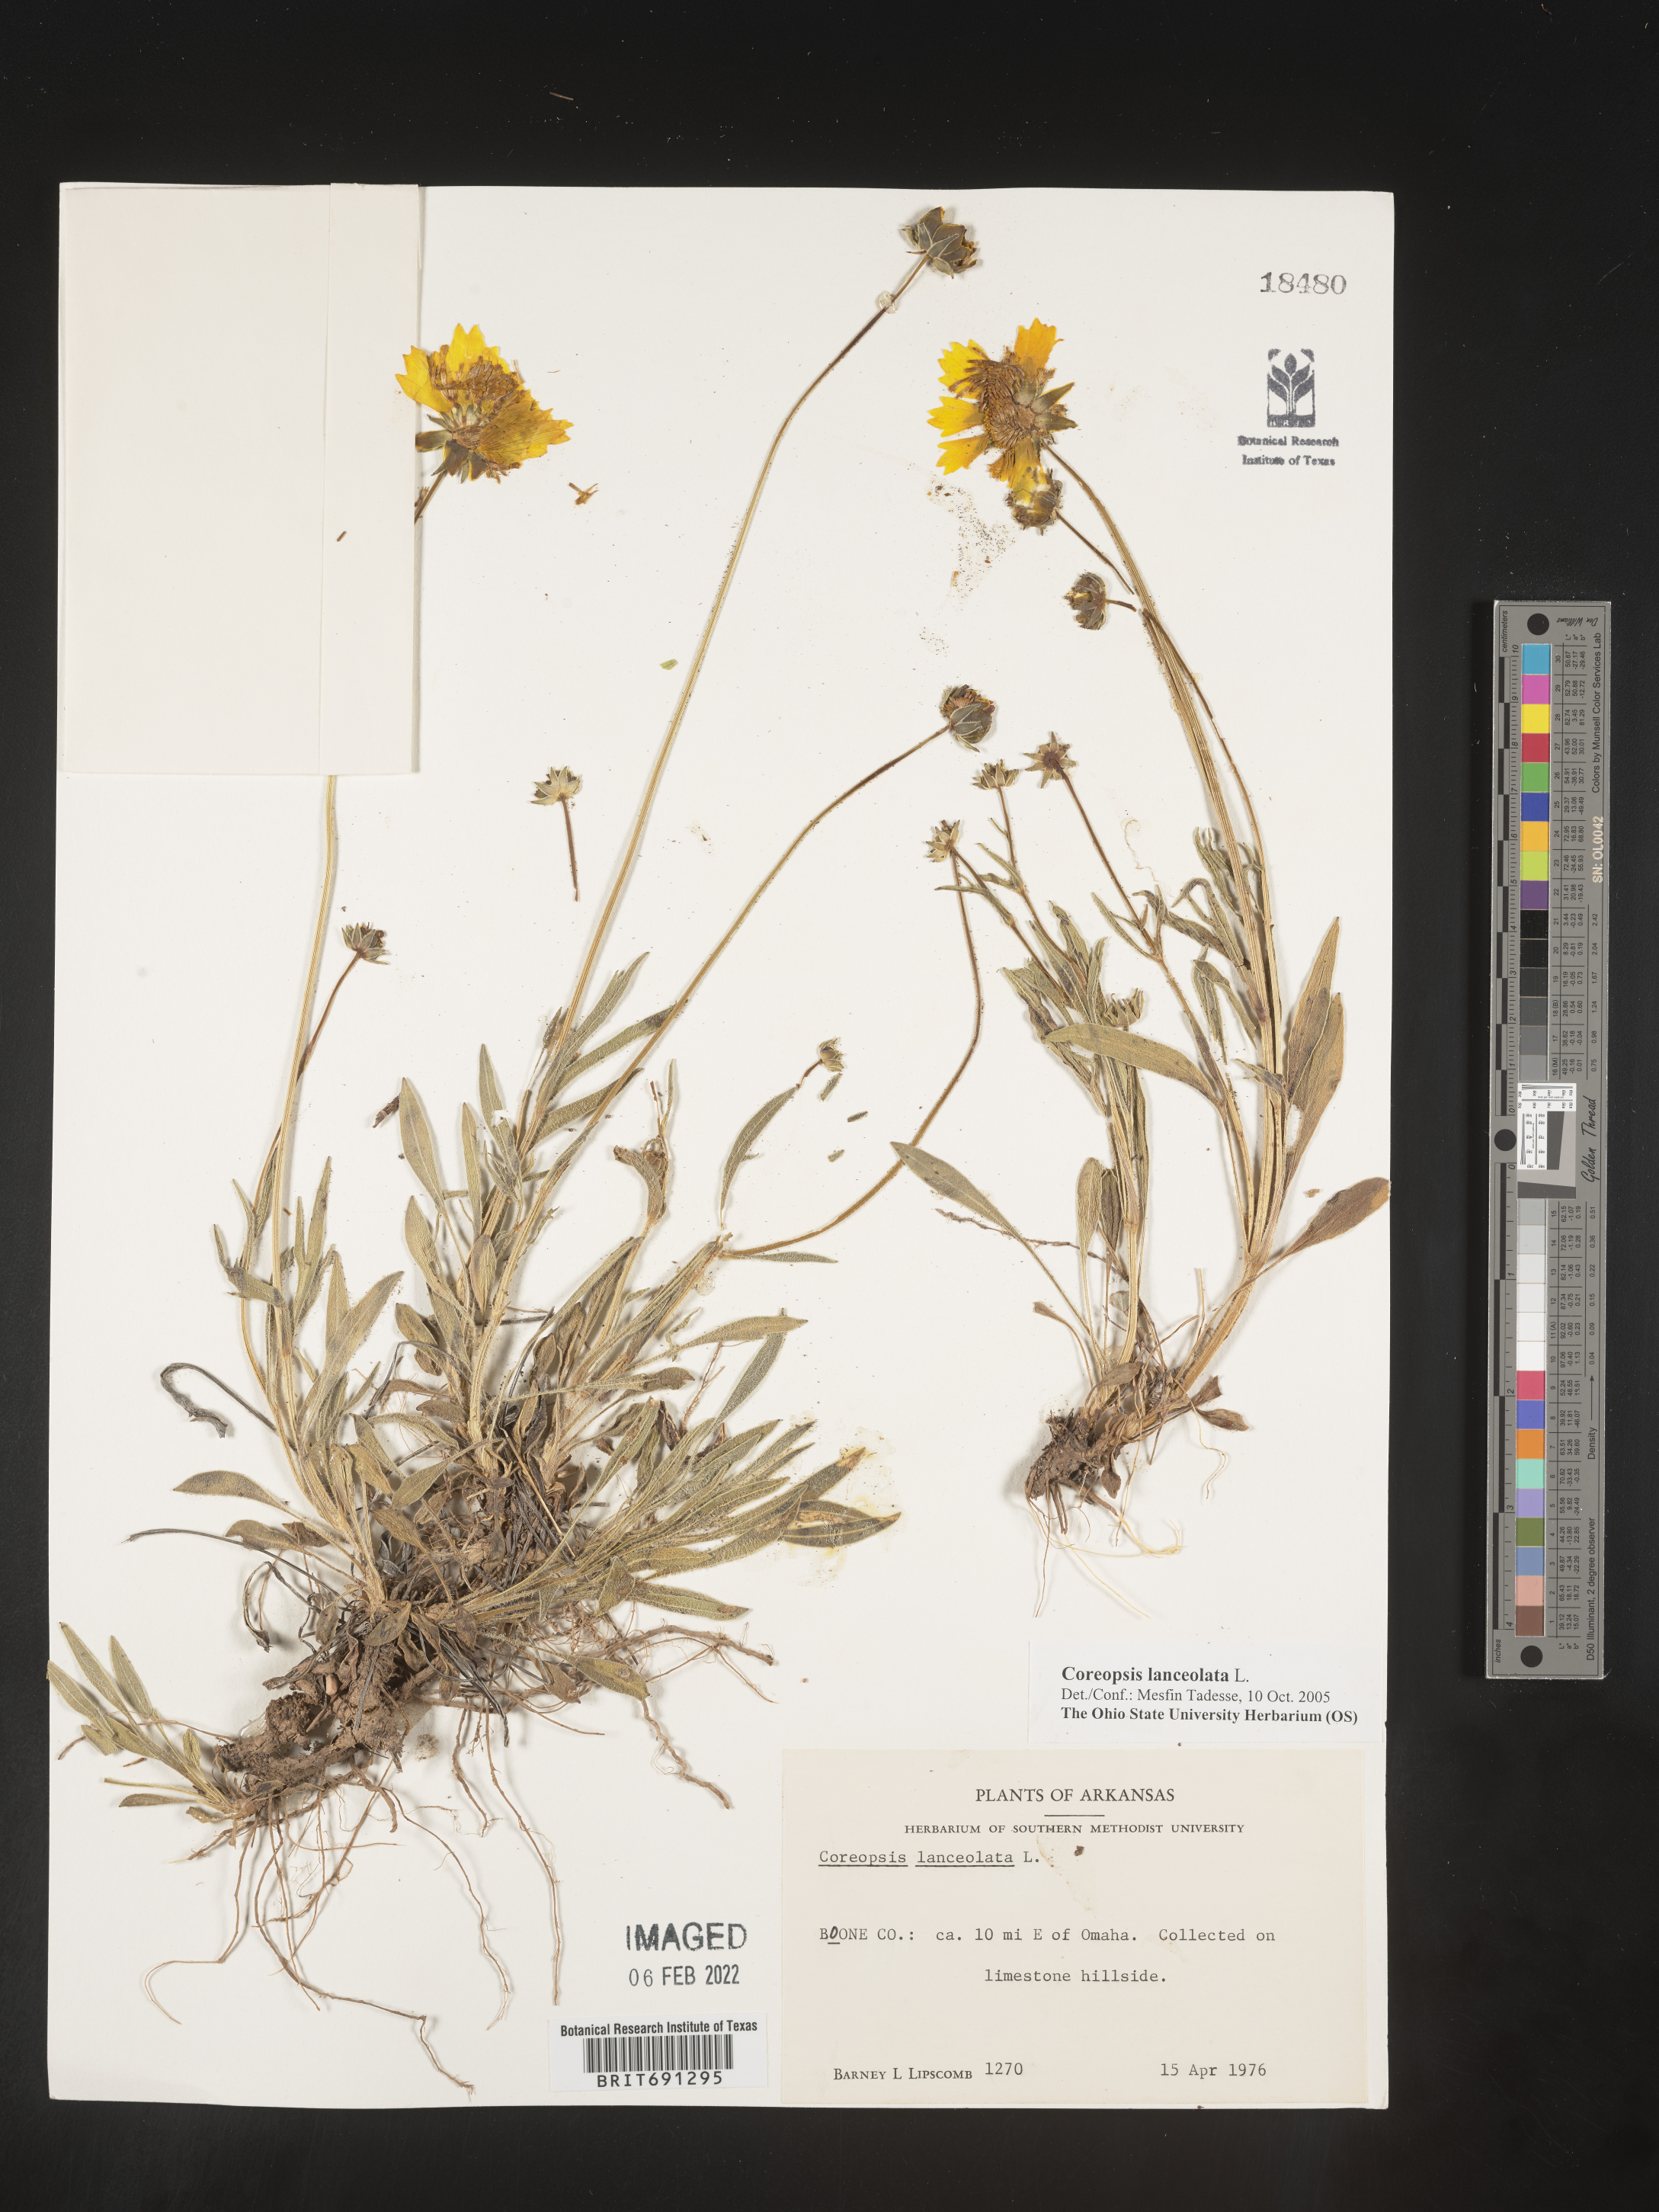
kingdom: Plantae
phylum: Tracheophyta
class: Magnoliopsida
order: Asterales
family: Asteraceae
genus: Coreopsis
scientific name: Coreopsis lanceolata
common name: Garden coreopsis
